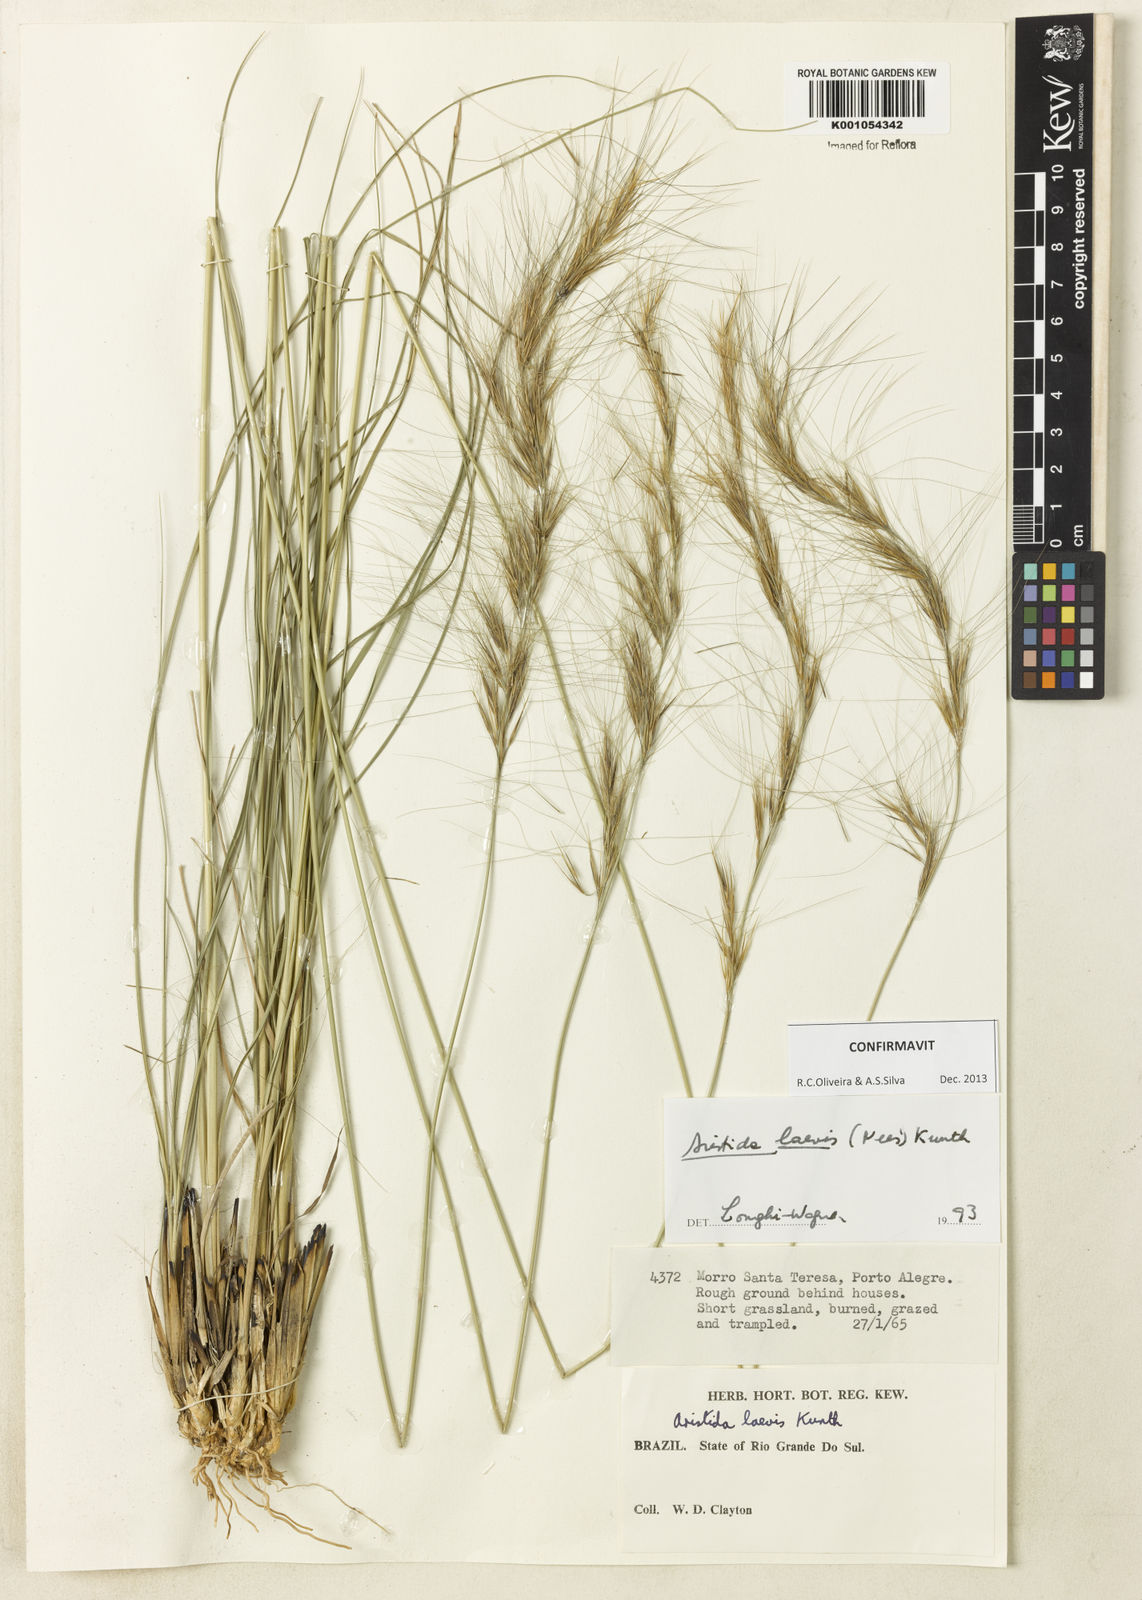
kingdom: Plantae
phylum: Tracheophyta
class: Liliopsida
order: Poales
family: Poaceae
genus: Aristida
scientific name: Aristida laevis
